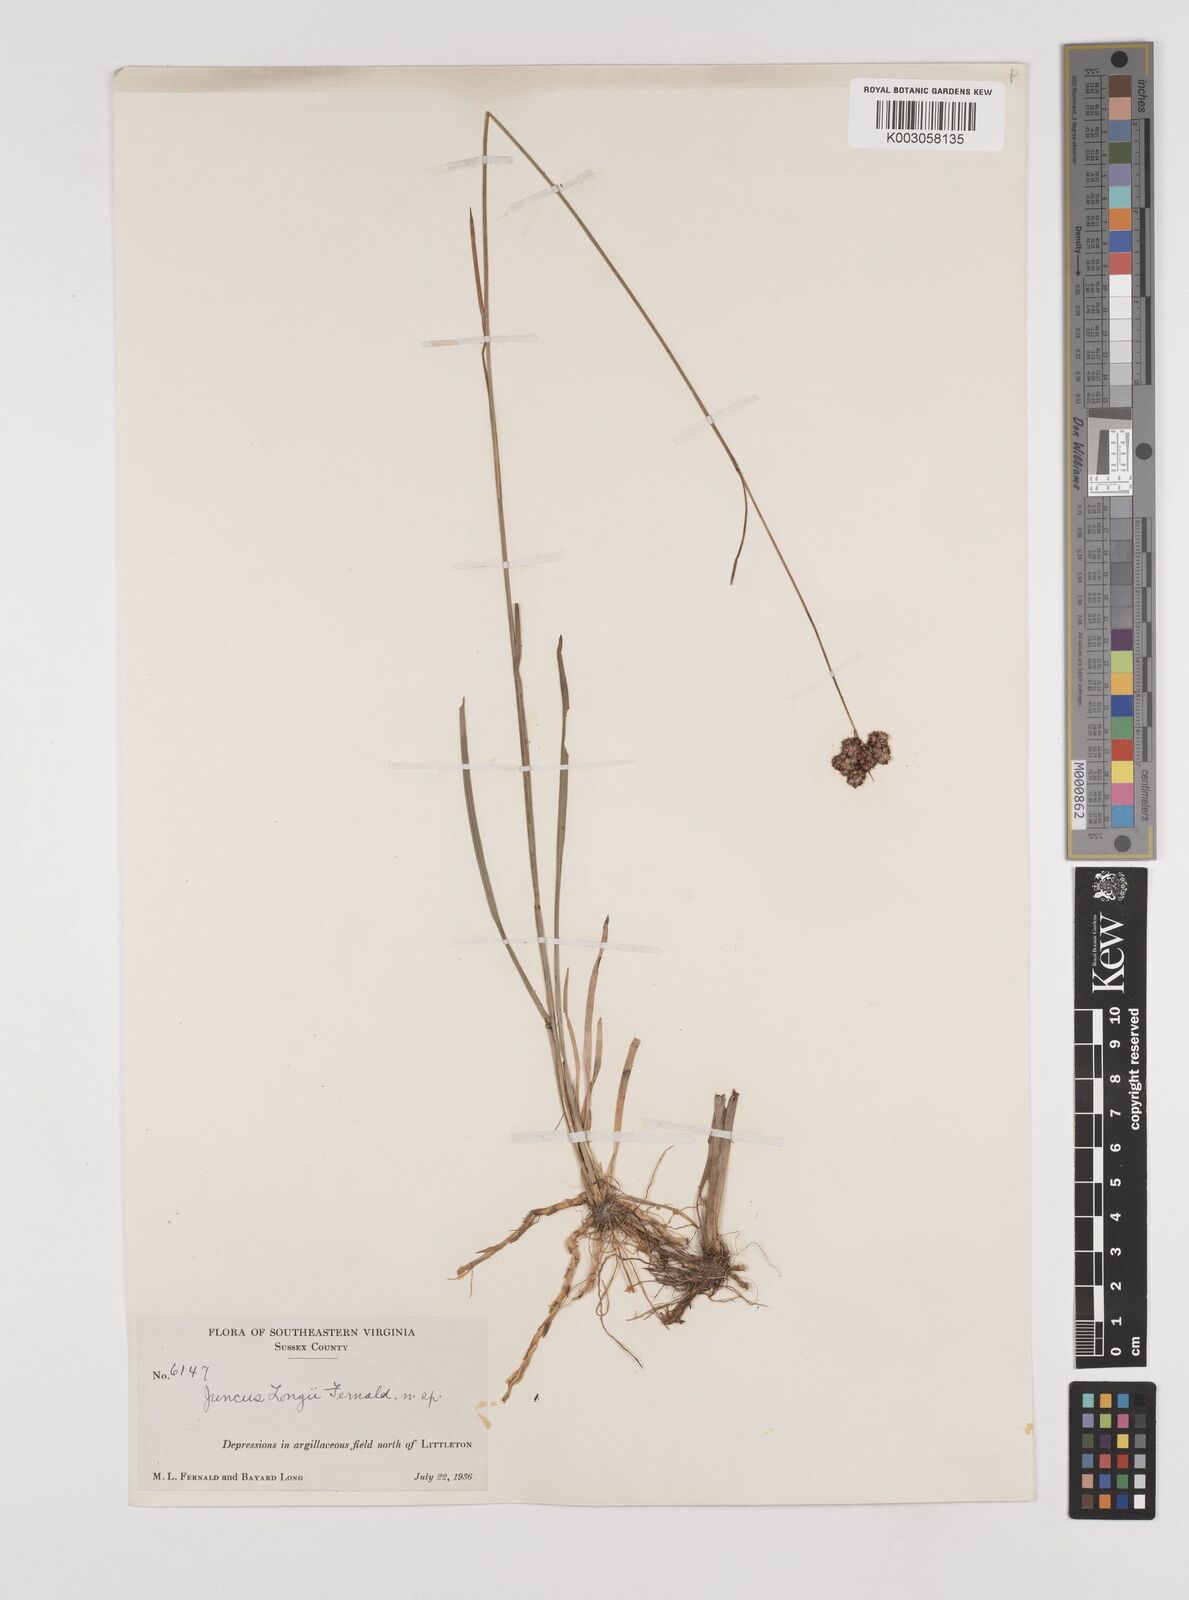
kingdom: Plantae
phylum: Tracheophyta
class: Liliopsida
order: Poales
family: Juncaceae
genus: Juncus
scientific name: Juncus longii
